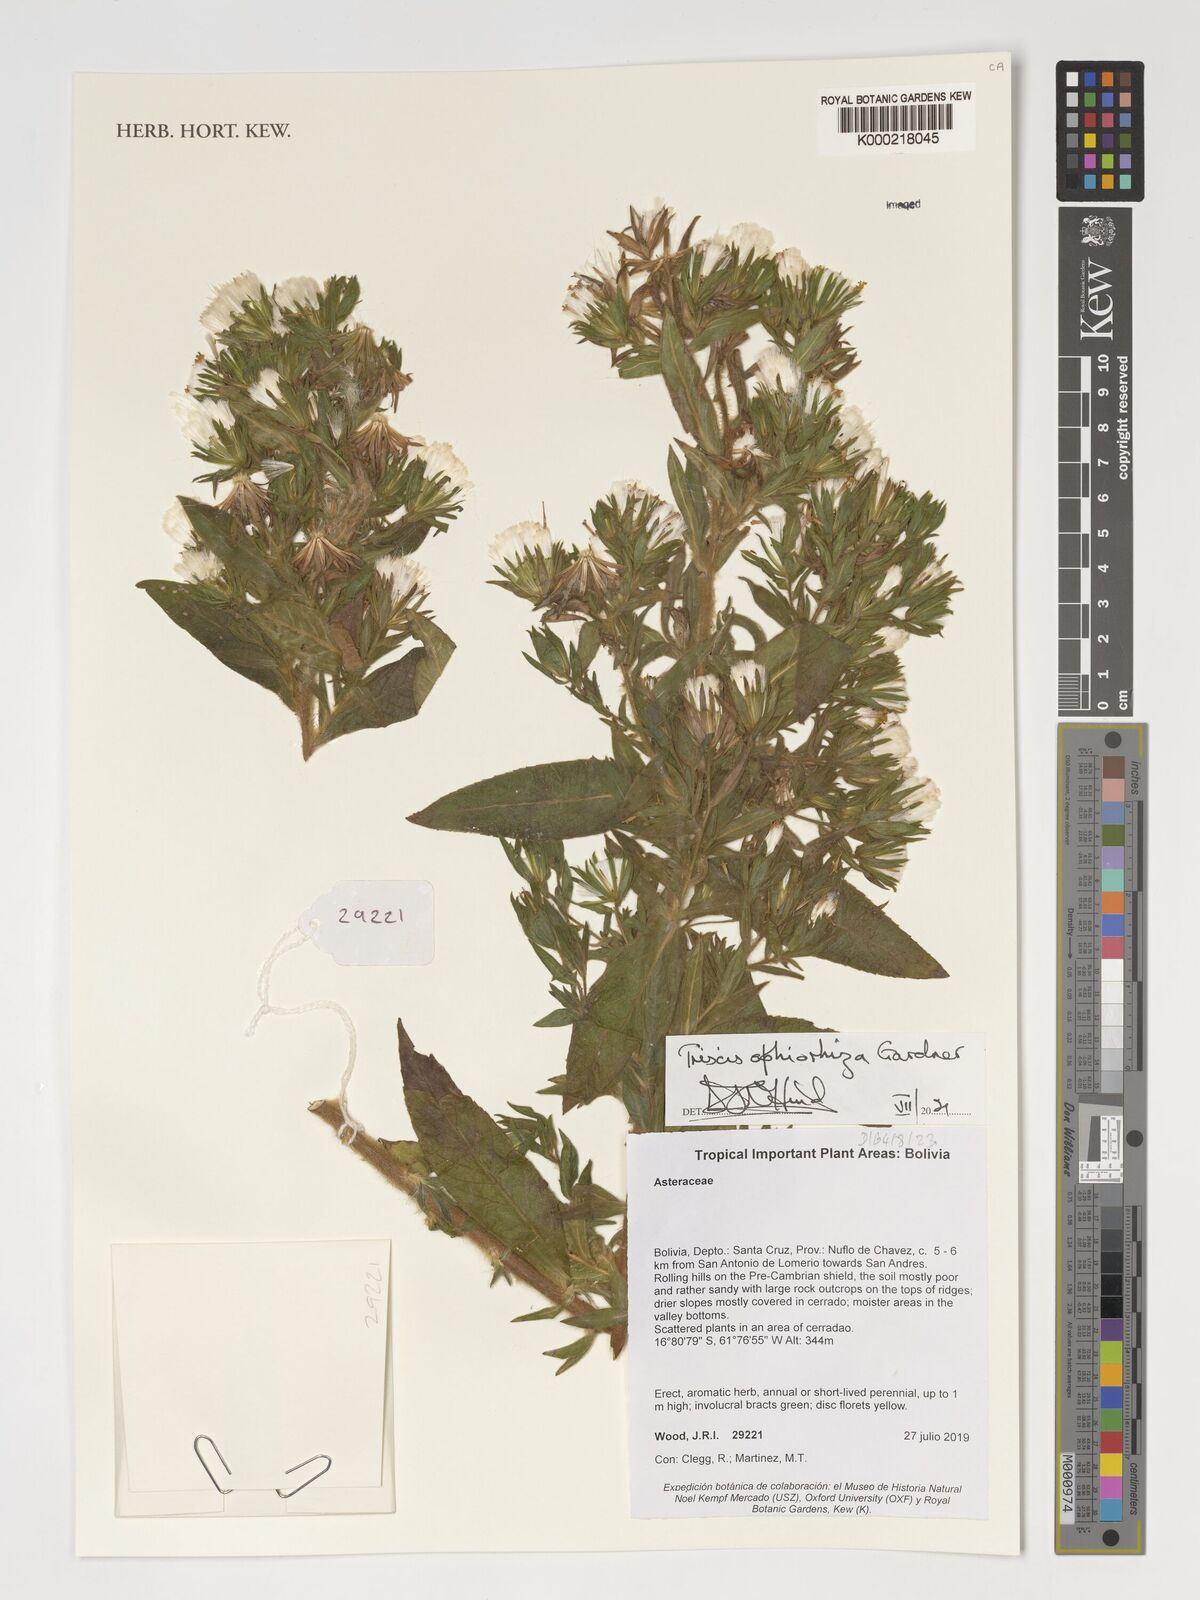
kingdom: Plantae
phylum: Tracheophyta
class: Magnoliopsida
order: Asterales
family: Asteraceae
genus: Trixis
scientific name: Trixis ophiorhiza
